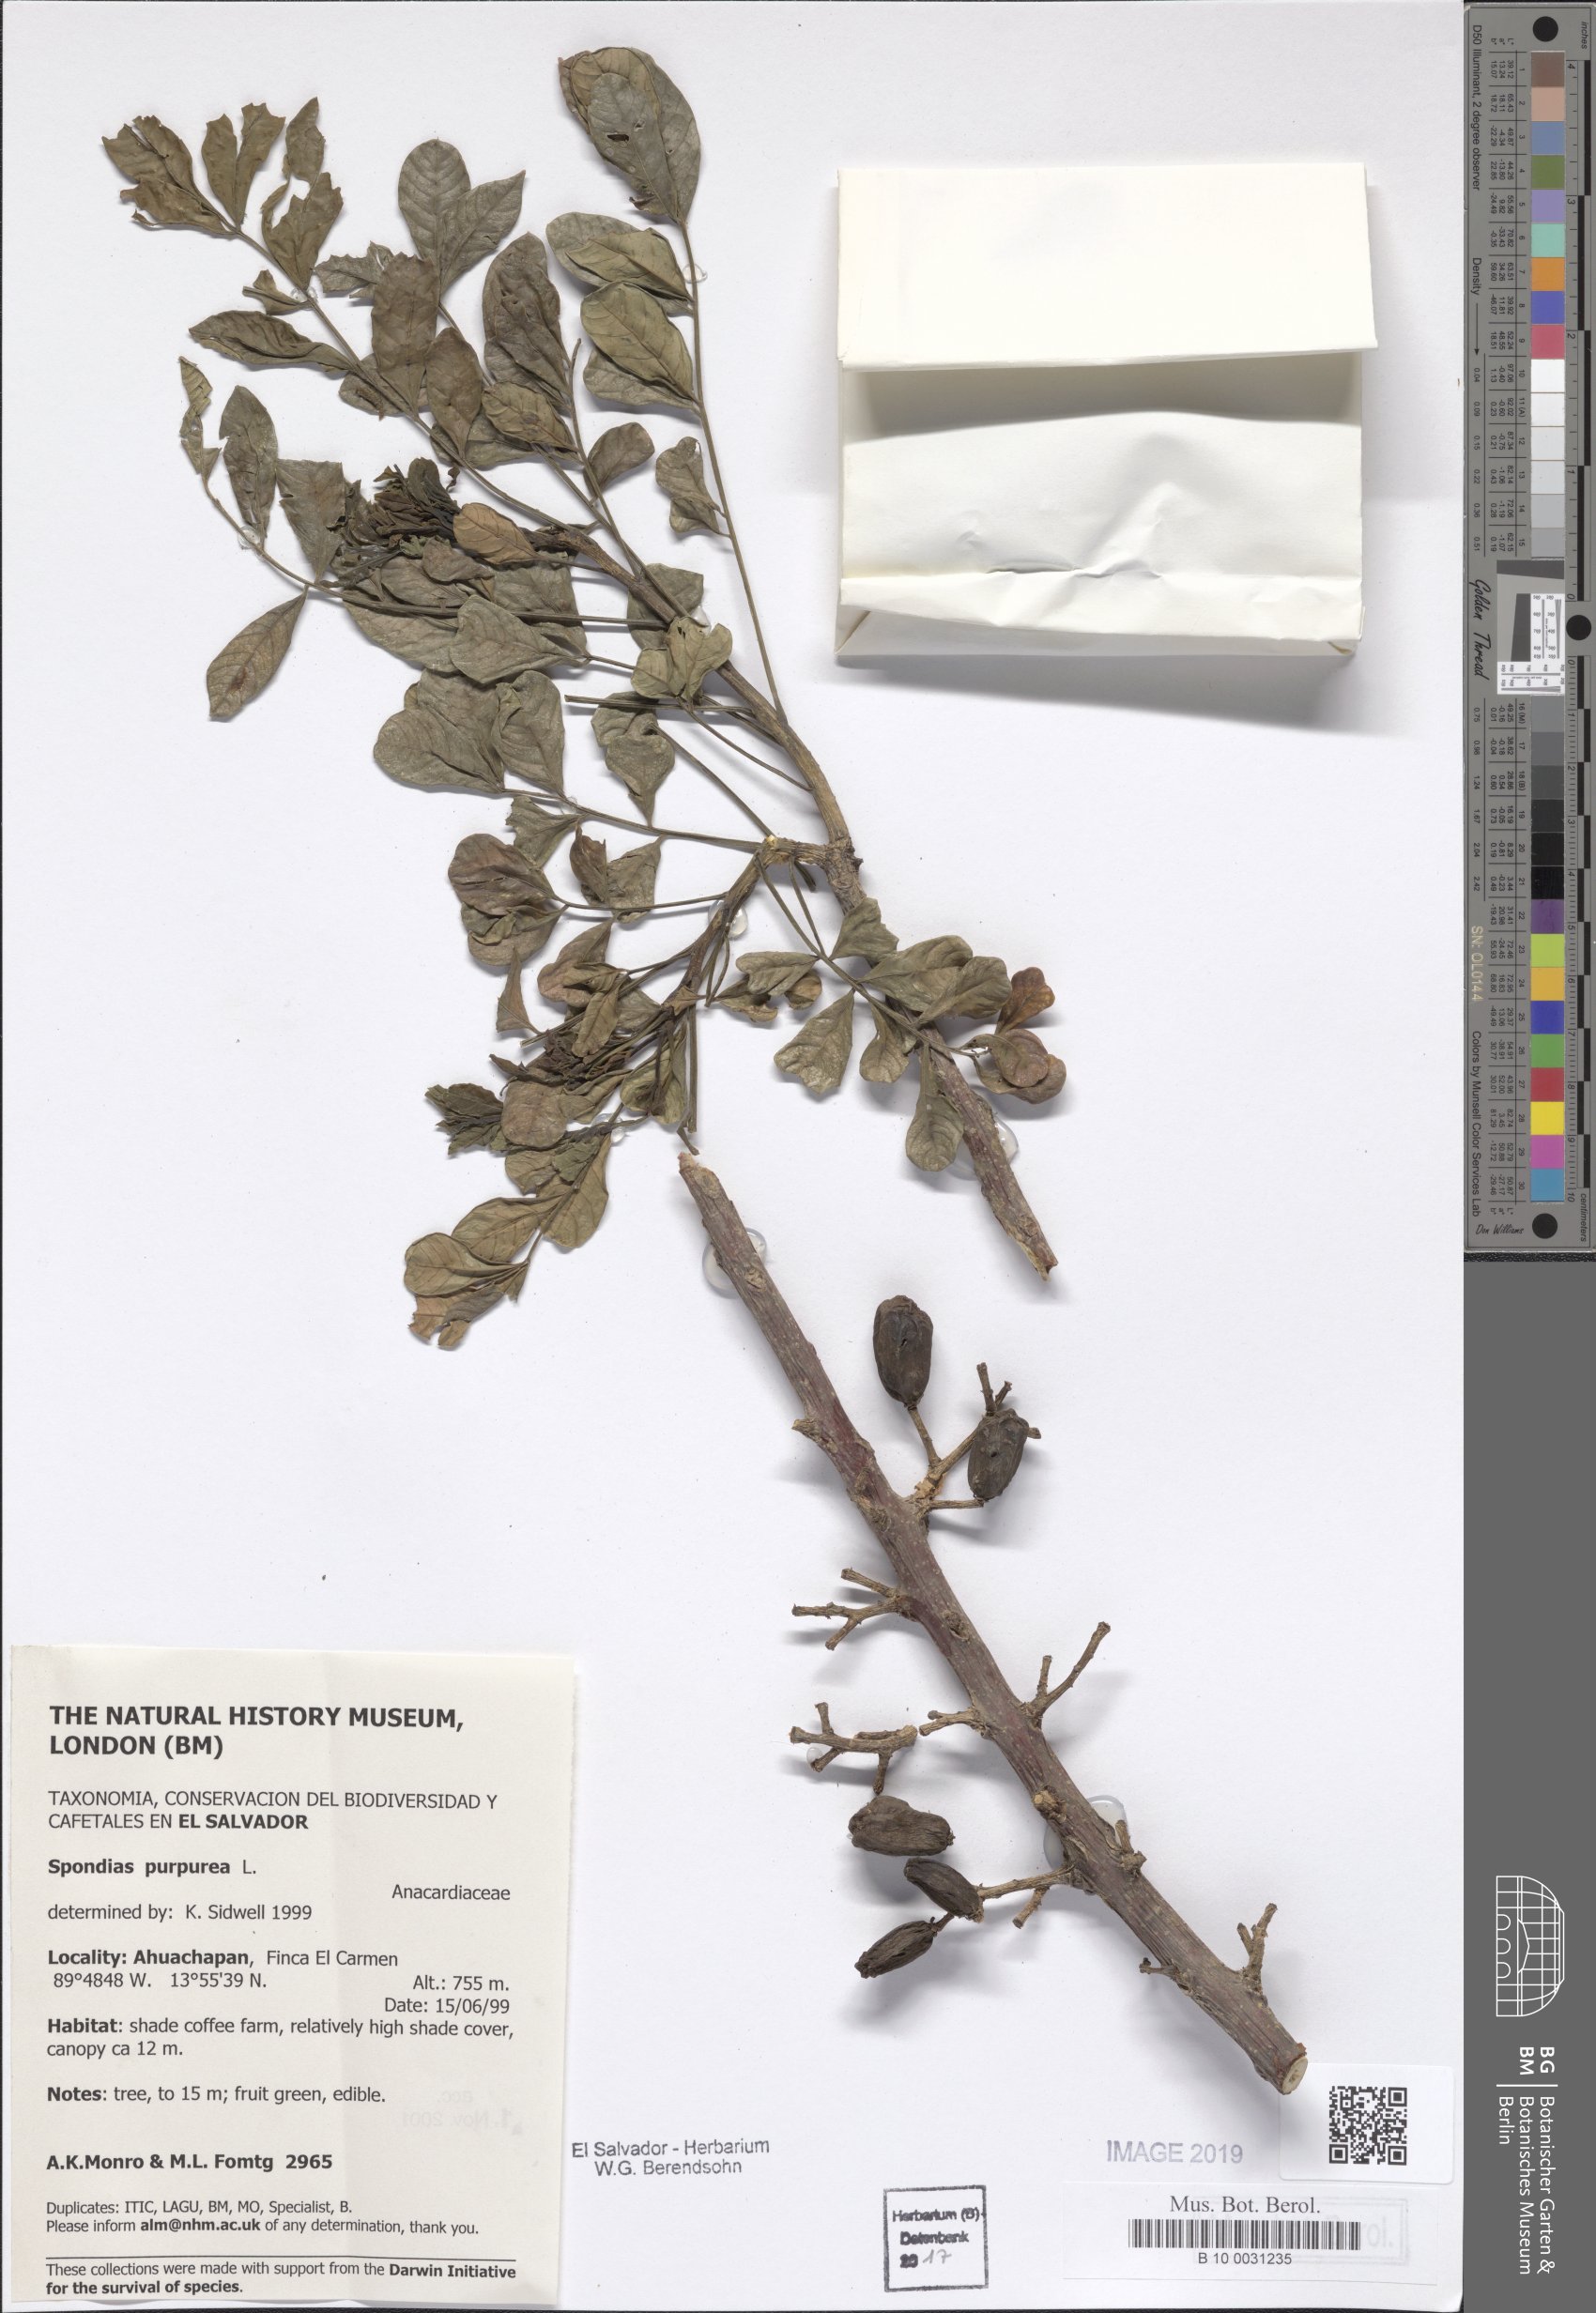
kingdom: Plantae
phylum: Tracheophyta
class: Magnoliopsida
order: Sapindales
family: Anacardiaceae
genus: Spondias
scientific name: Spondias purpurea
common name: Purple mombin
